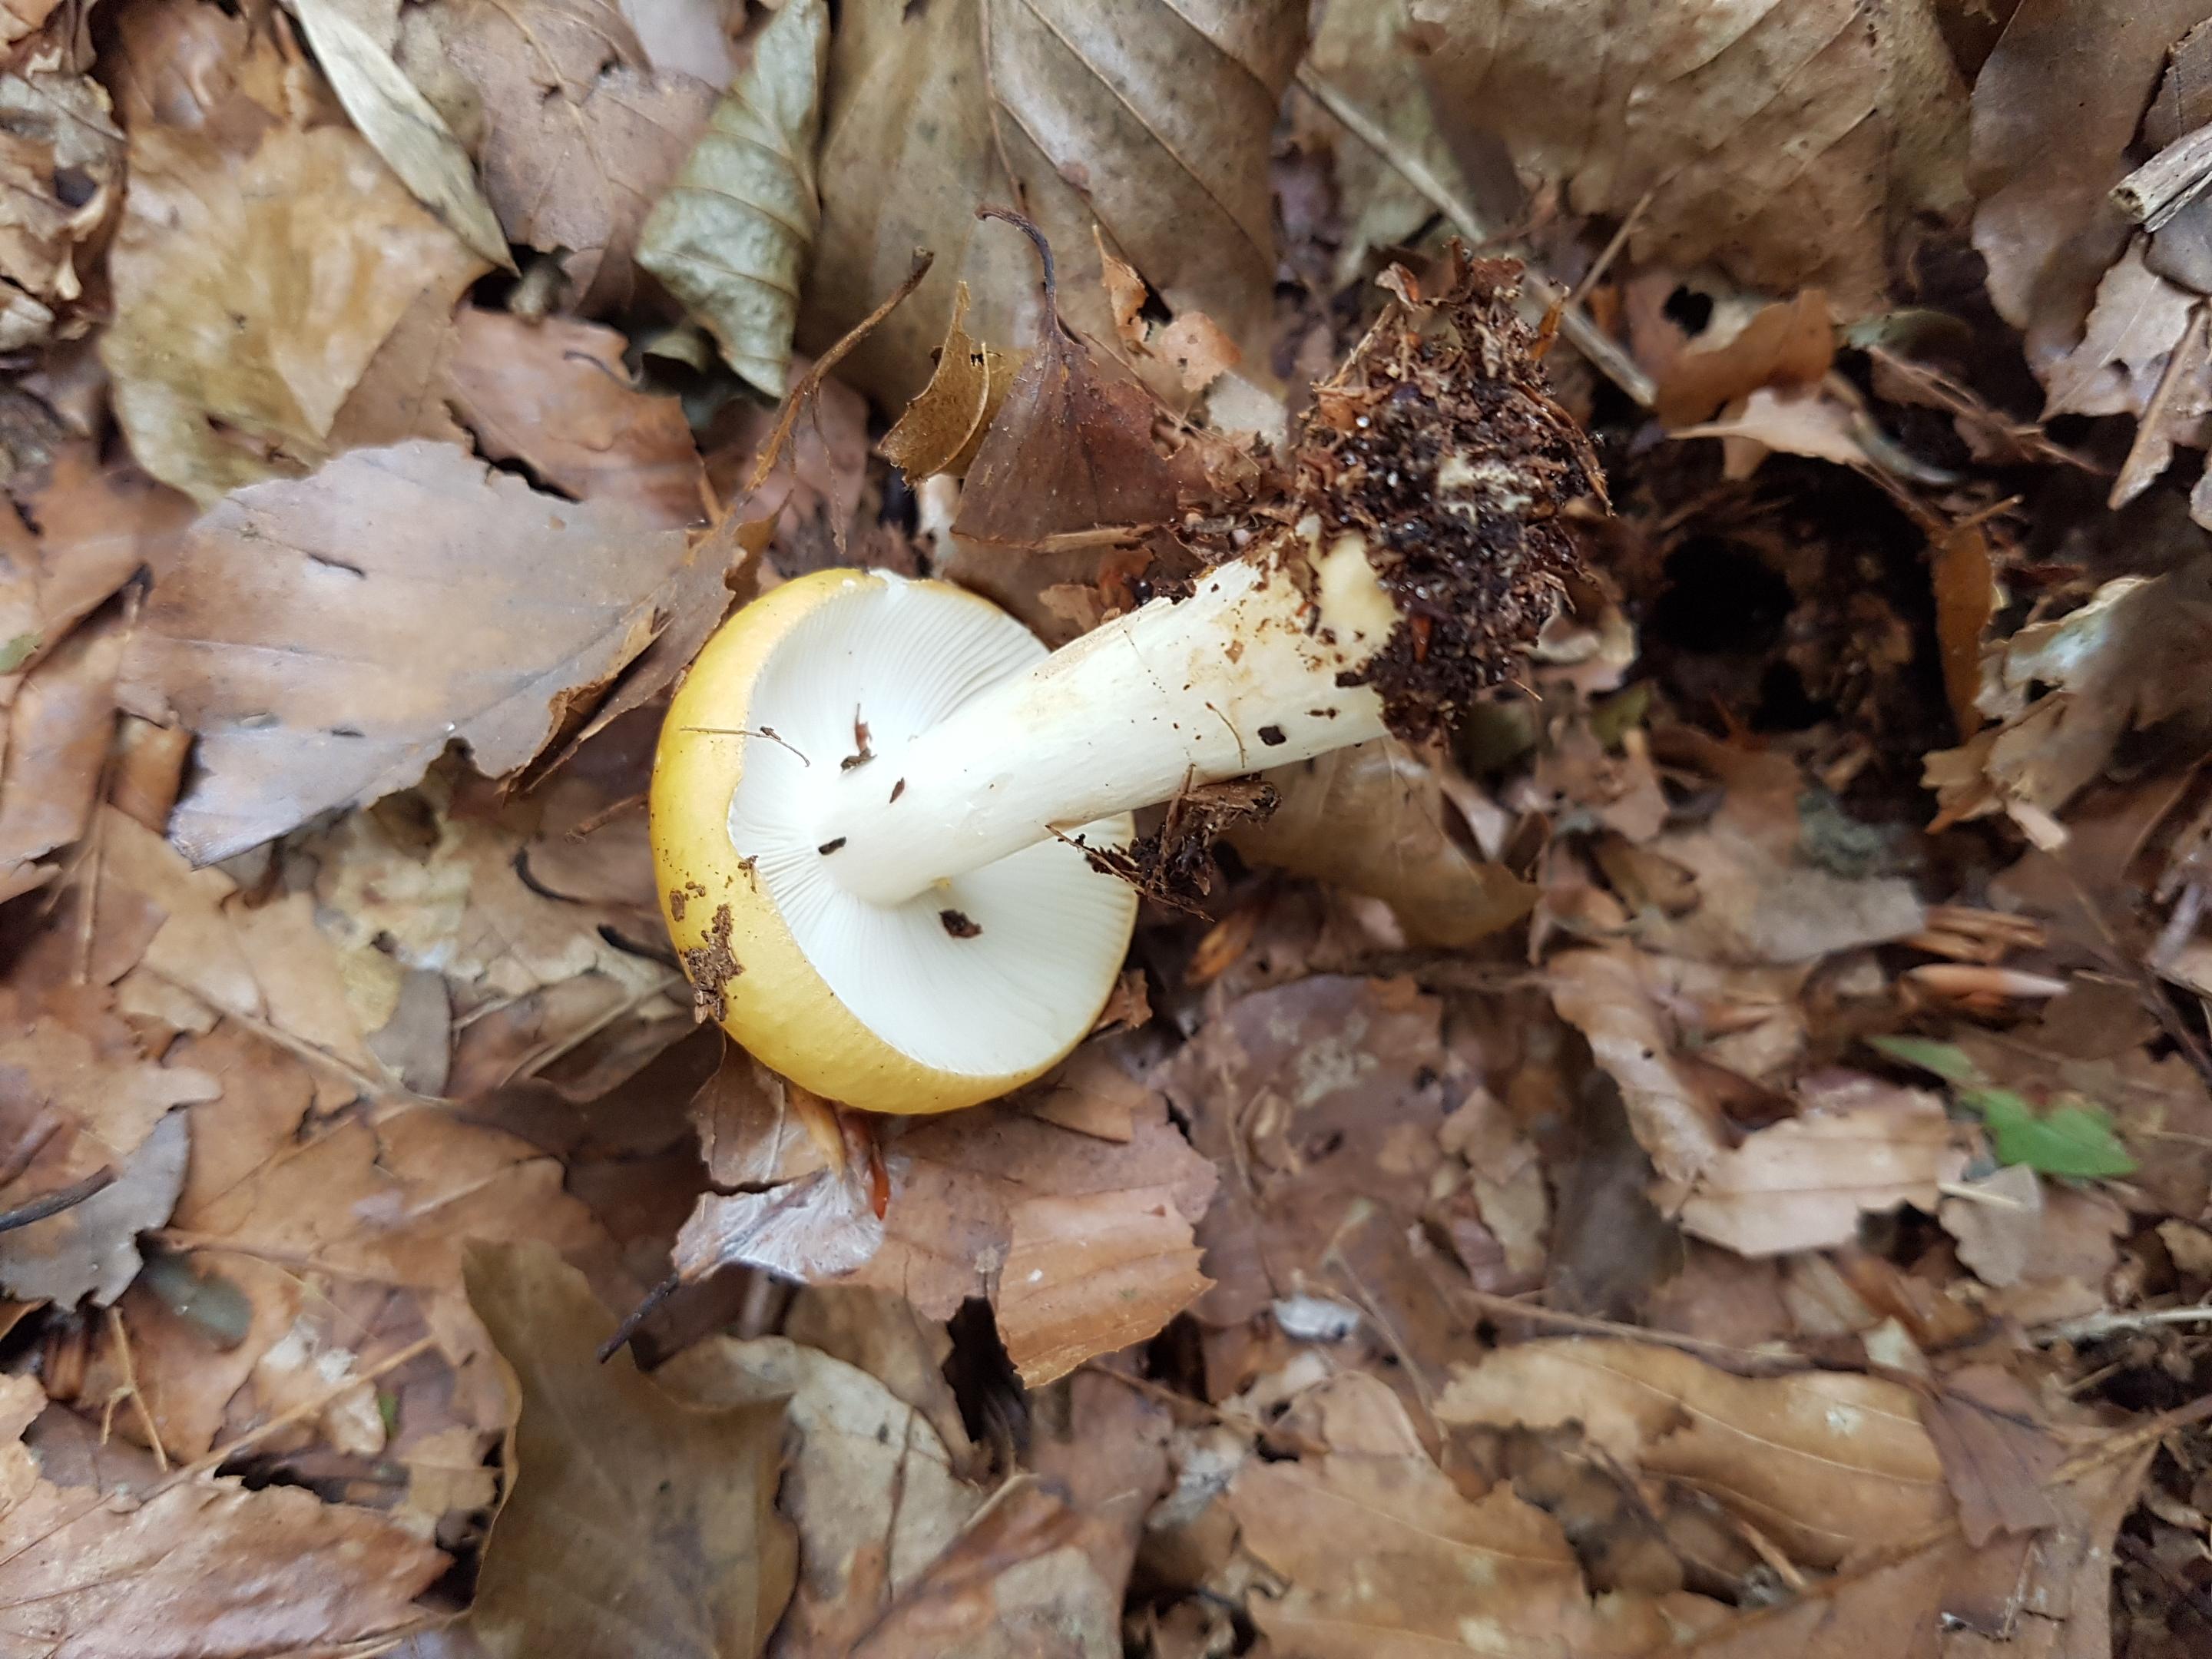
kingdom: Fungi
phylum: Basidiomycota
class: Agaricomycetes
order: Russulales
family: Russulaceae
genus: Russula
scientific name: Russula ochroleuca
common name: okkergul skørhat
